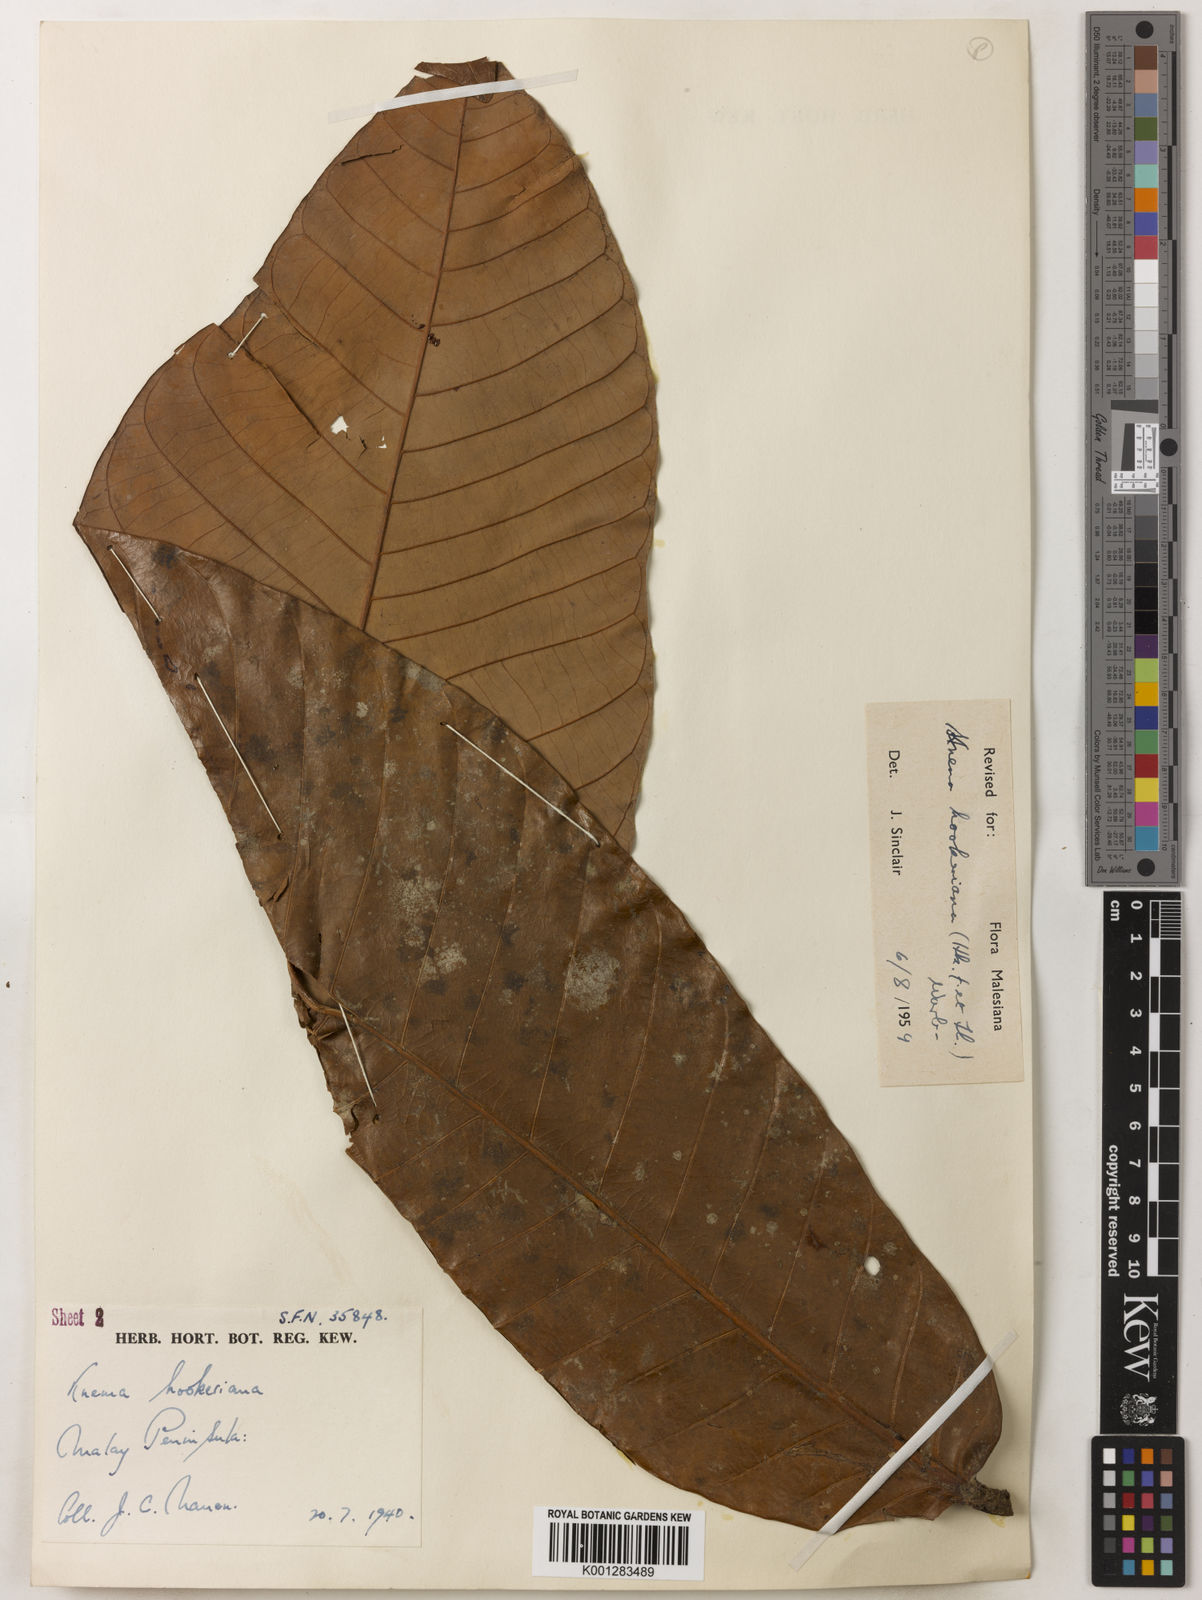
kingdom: Plantae
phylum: Tracheophyta
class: Magnoliopsida
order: Magnoliales
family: Myristicaceae
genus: Knema
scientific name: Knema hookeriana
